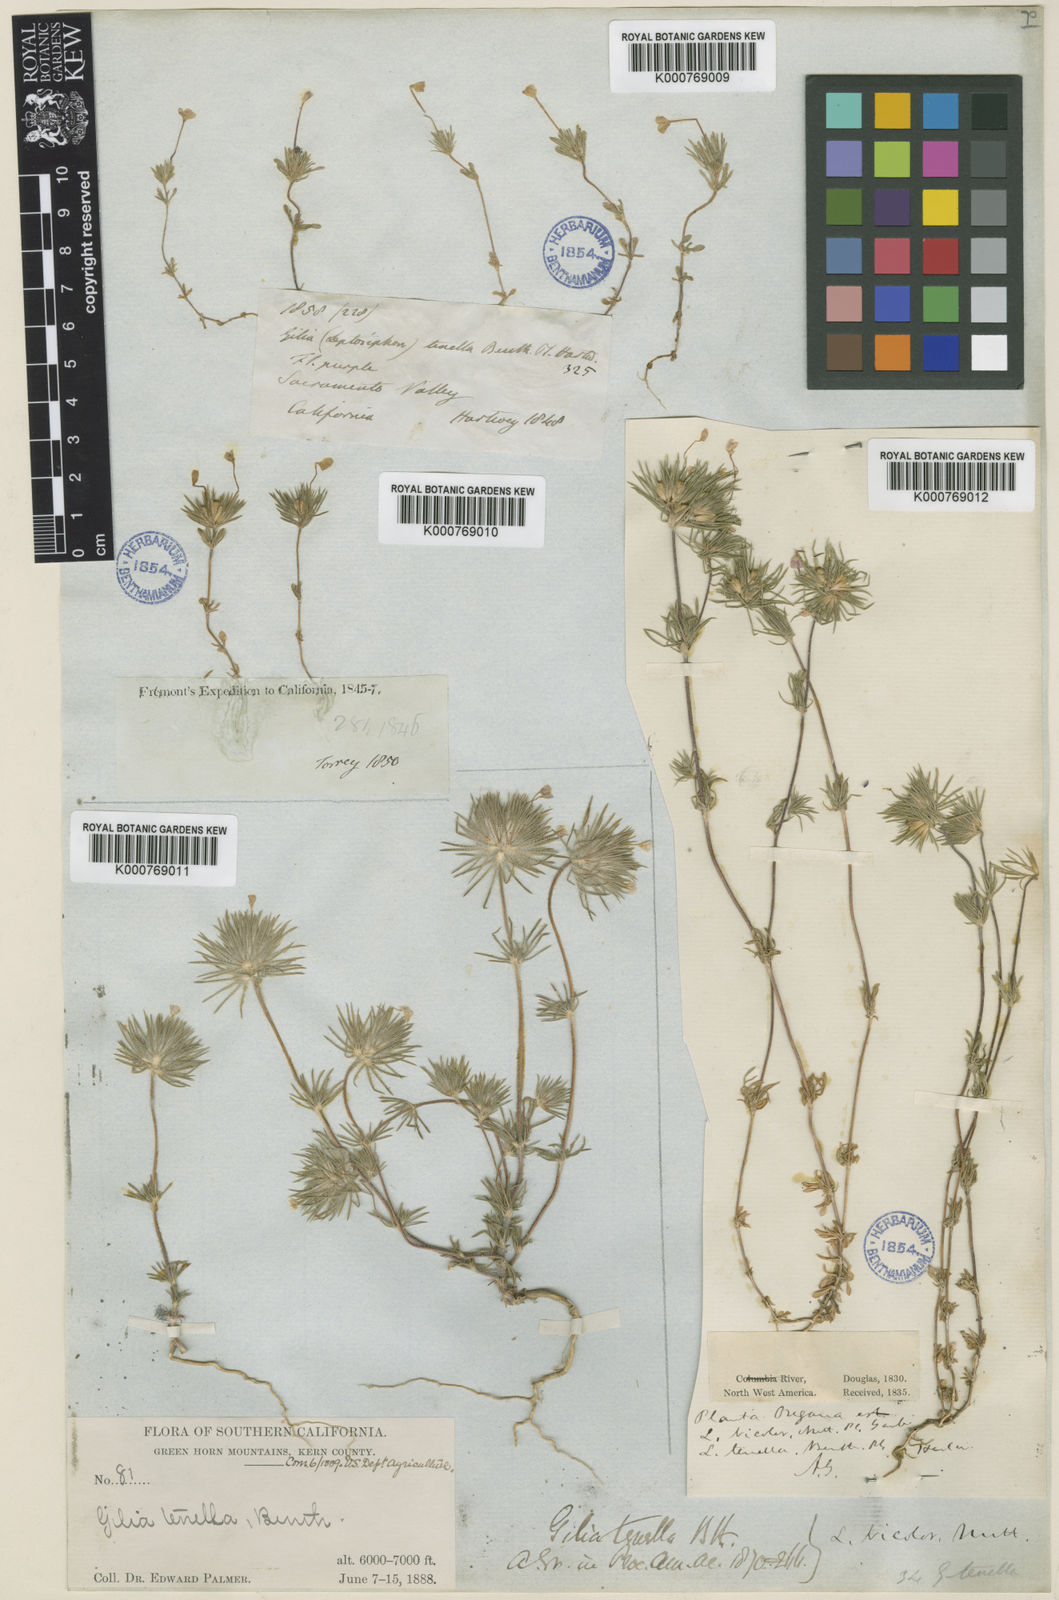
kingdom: Plantae
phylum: Tracheophyta
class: Magnoliopsida
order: Ericales
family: Polemoniaceae
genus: Leptosiphon
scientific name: Leptosiphon bicolor
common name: True babystars
